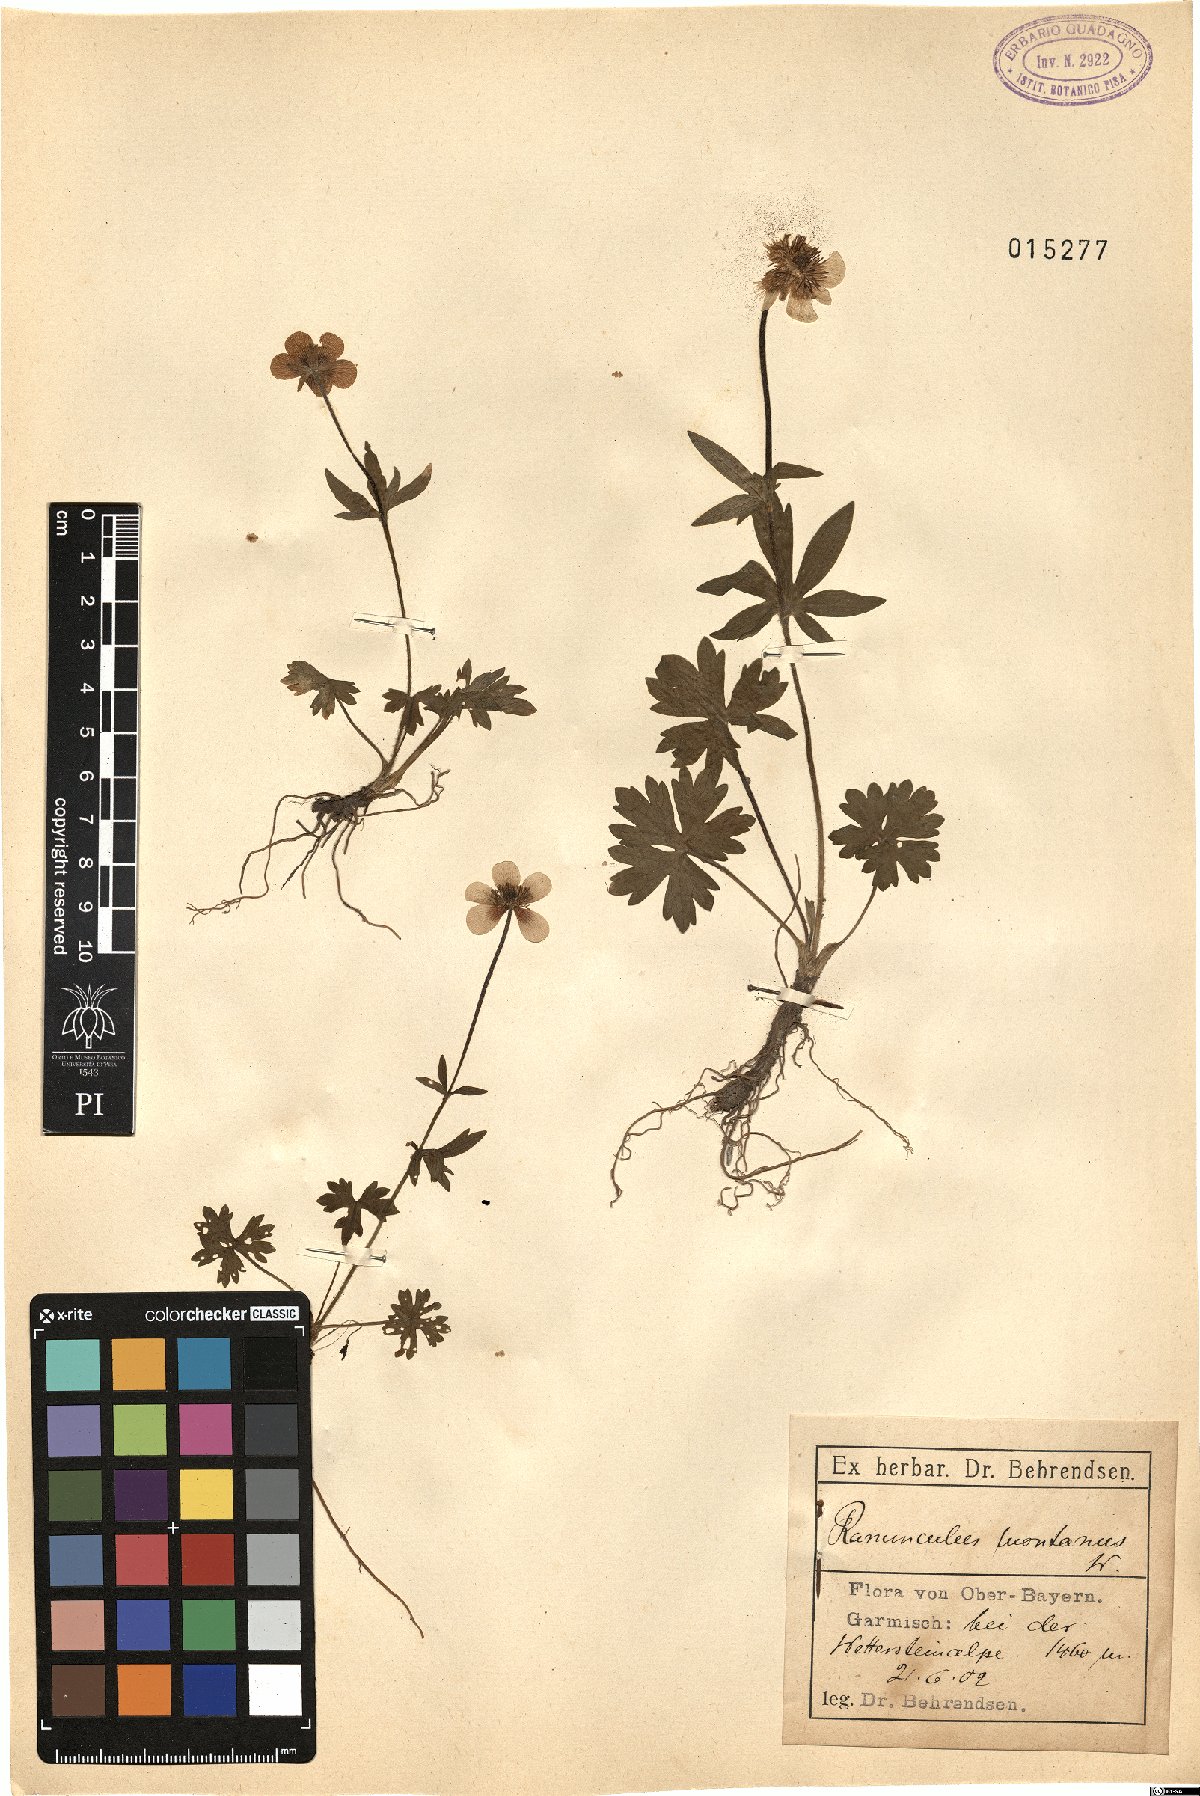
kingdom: Plantae
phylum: Tracheophyta
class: Magnoliopsida
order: Ranunculales
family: Ranunculaceae
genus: Ranunculus
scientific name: Ranunculus montanus
